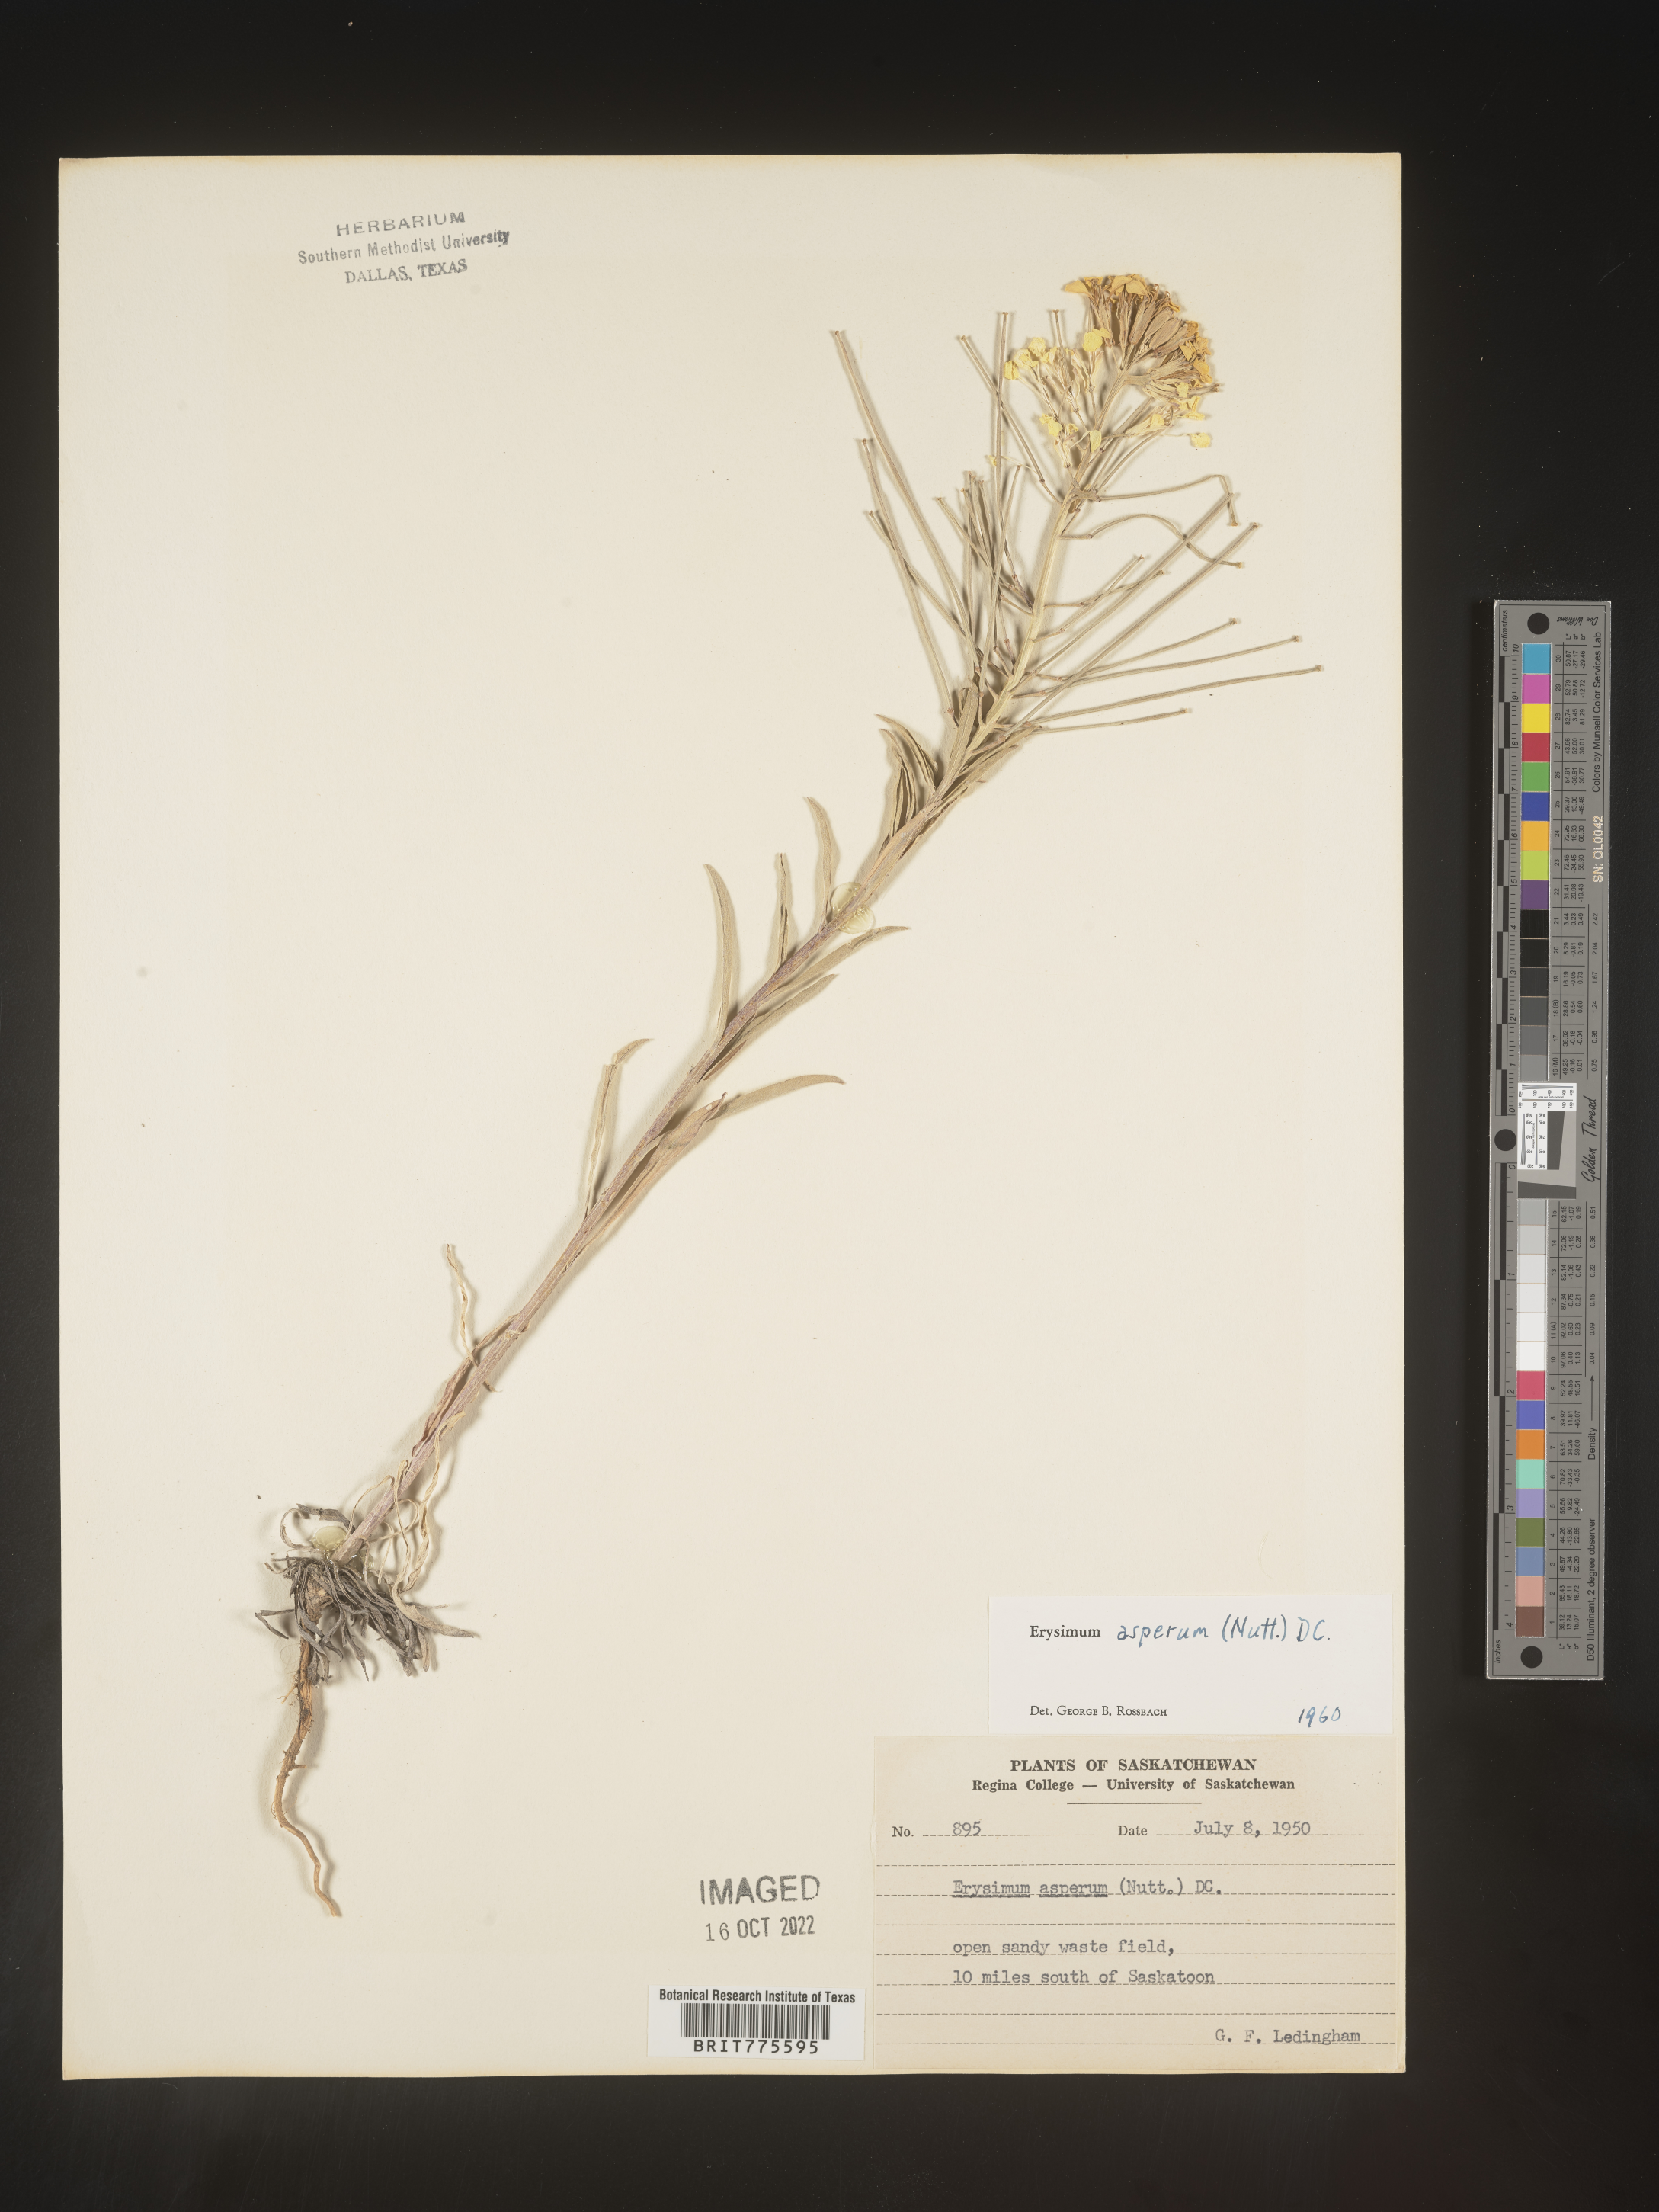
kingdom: Plantae
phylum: Tracheophyta
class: Magnoliopsida
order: Brassicales
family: Brassicaceae
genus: Erysimum
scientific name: Erysimum capitatum
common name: Western wallflower
